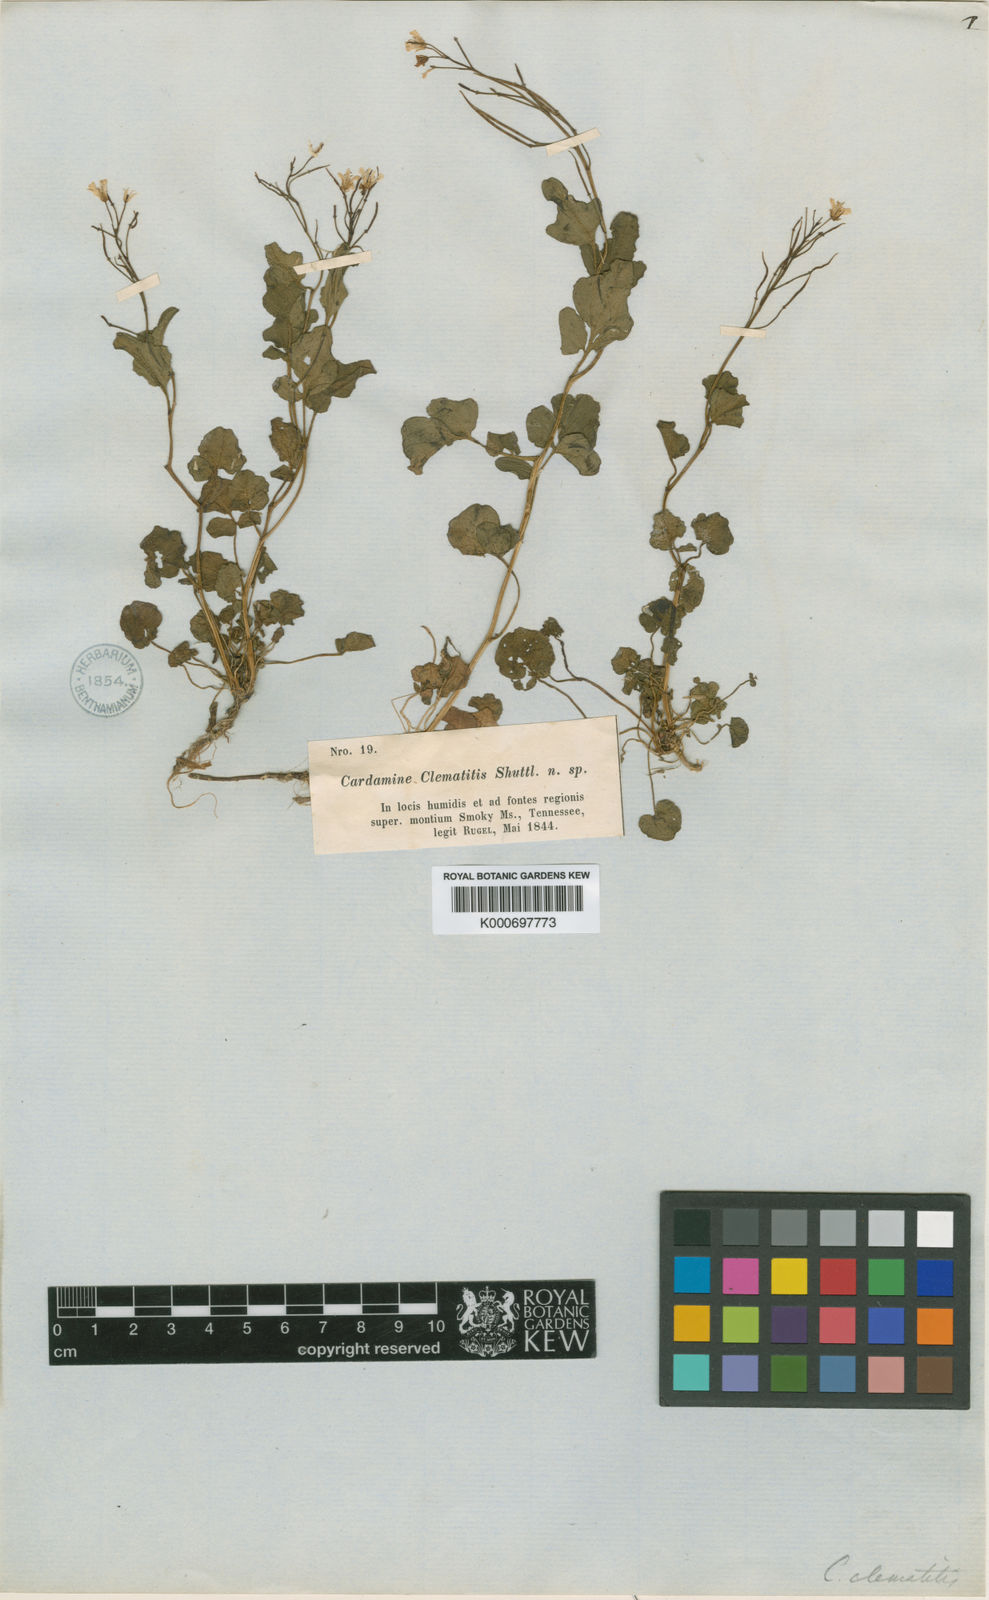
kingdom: Plantae
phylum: Tracheophyta
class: Magnoliopsida
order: Brassicales
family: Brassicaceae
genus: Cardamine
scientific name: Cardamine
